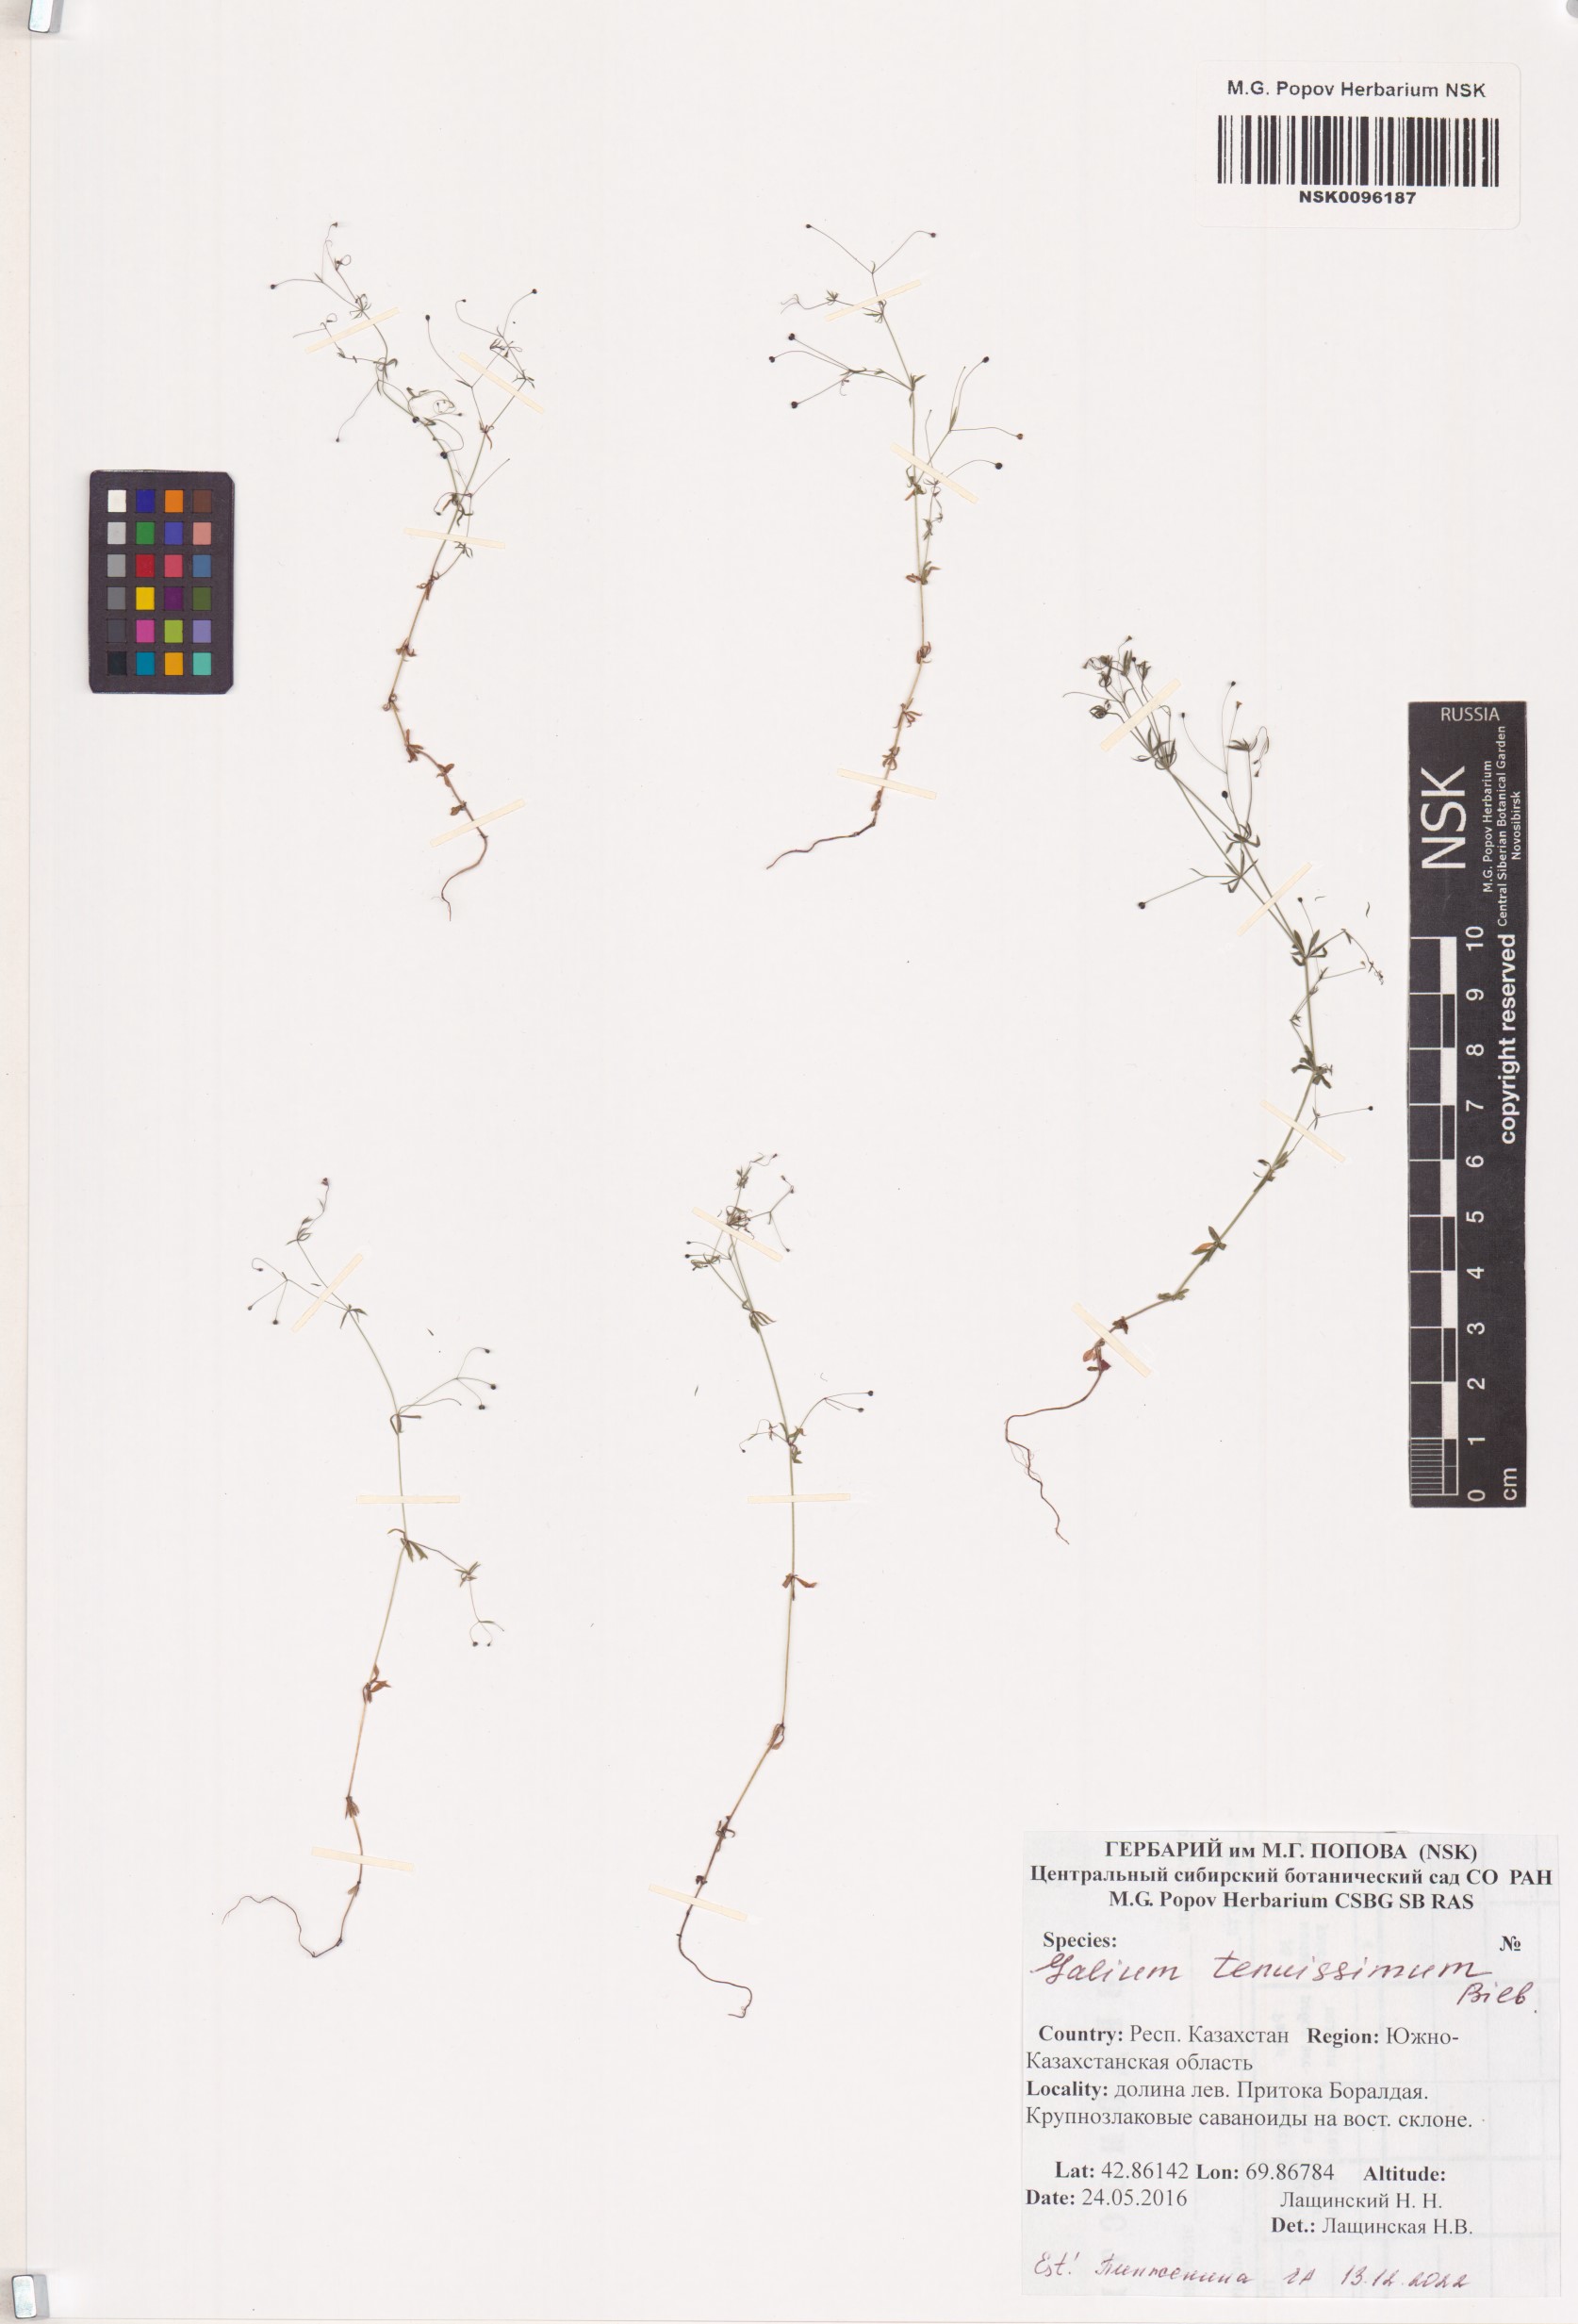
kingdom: Plantae
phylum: Tracheophyta
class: Magnoliopsida
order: Gentianales
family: Rubiaceae
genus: Galium
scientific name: Galium tenuissimum
